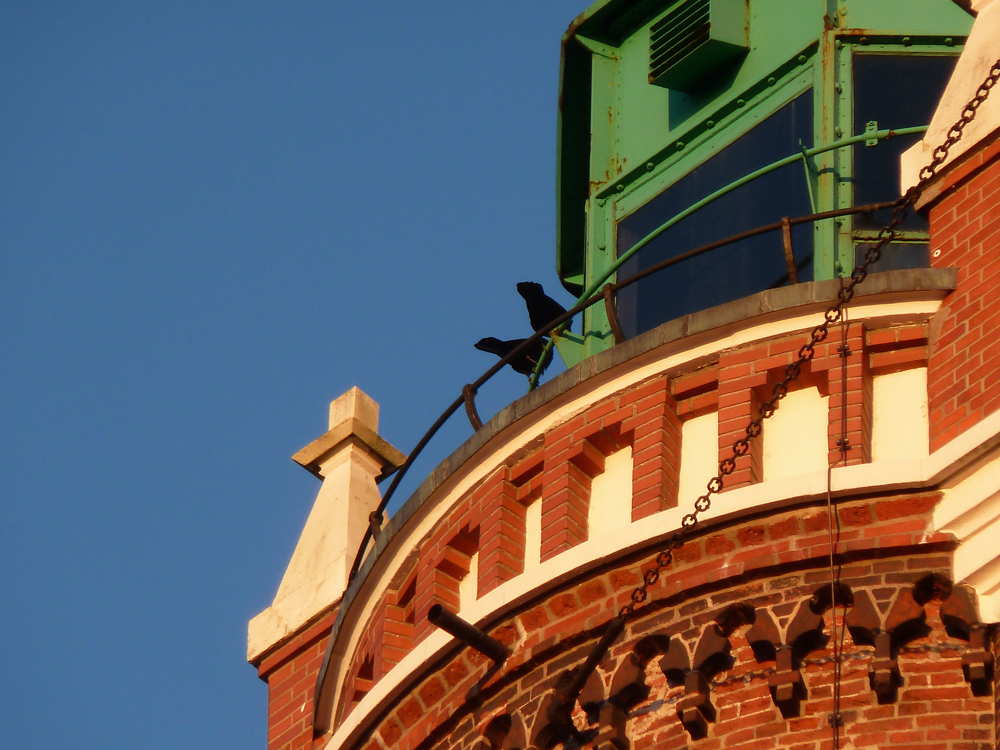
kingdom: Animalia
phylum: Chordata
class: Aves
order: Passeriformes
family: Corvidae
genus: Corvus
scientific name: Corvus corone
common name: Carrion crow
